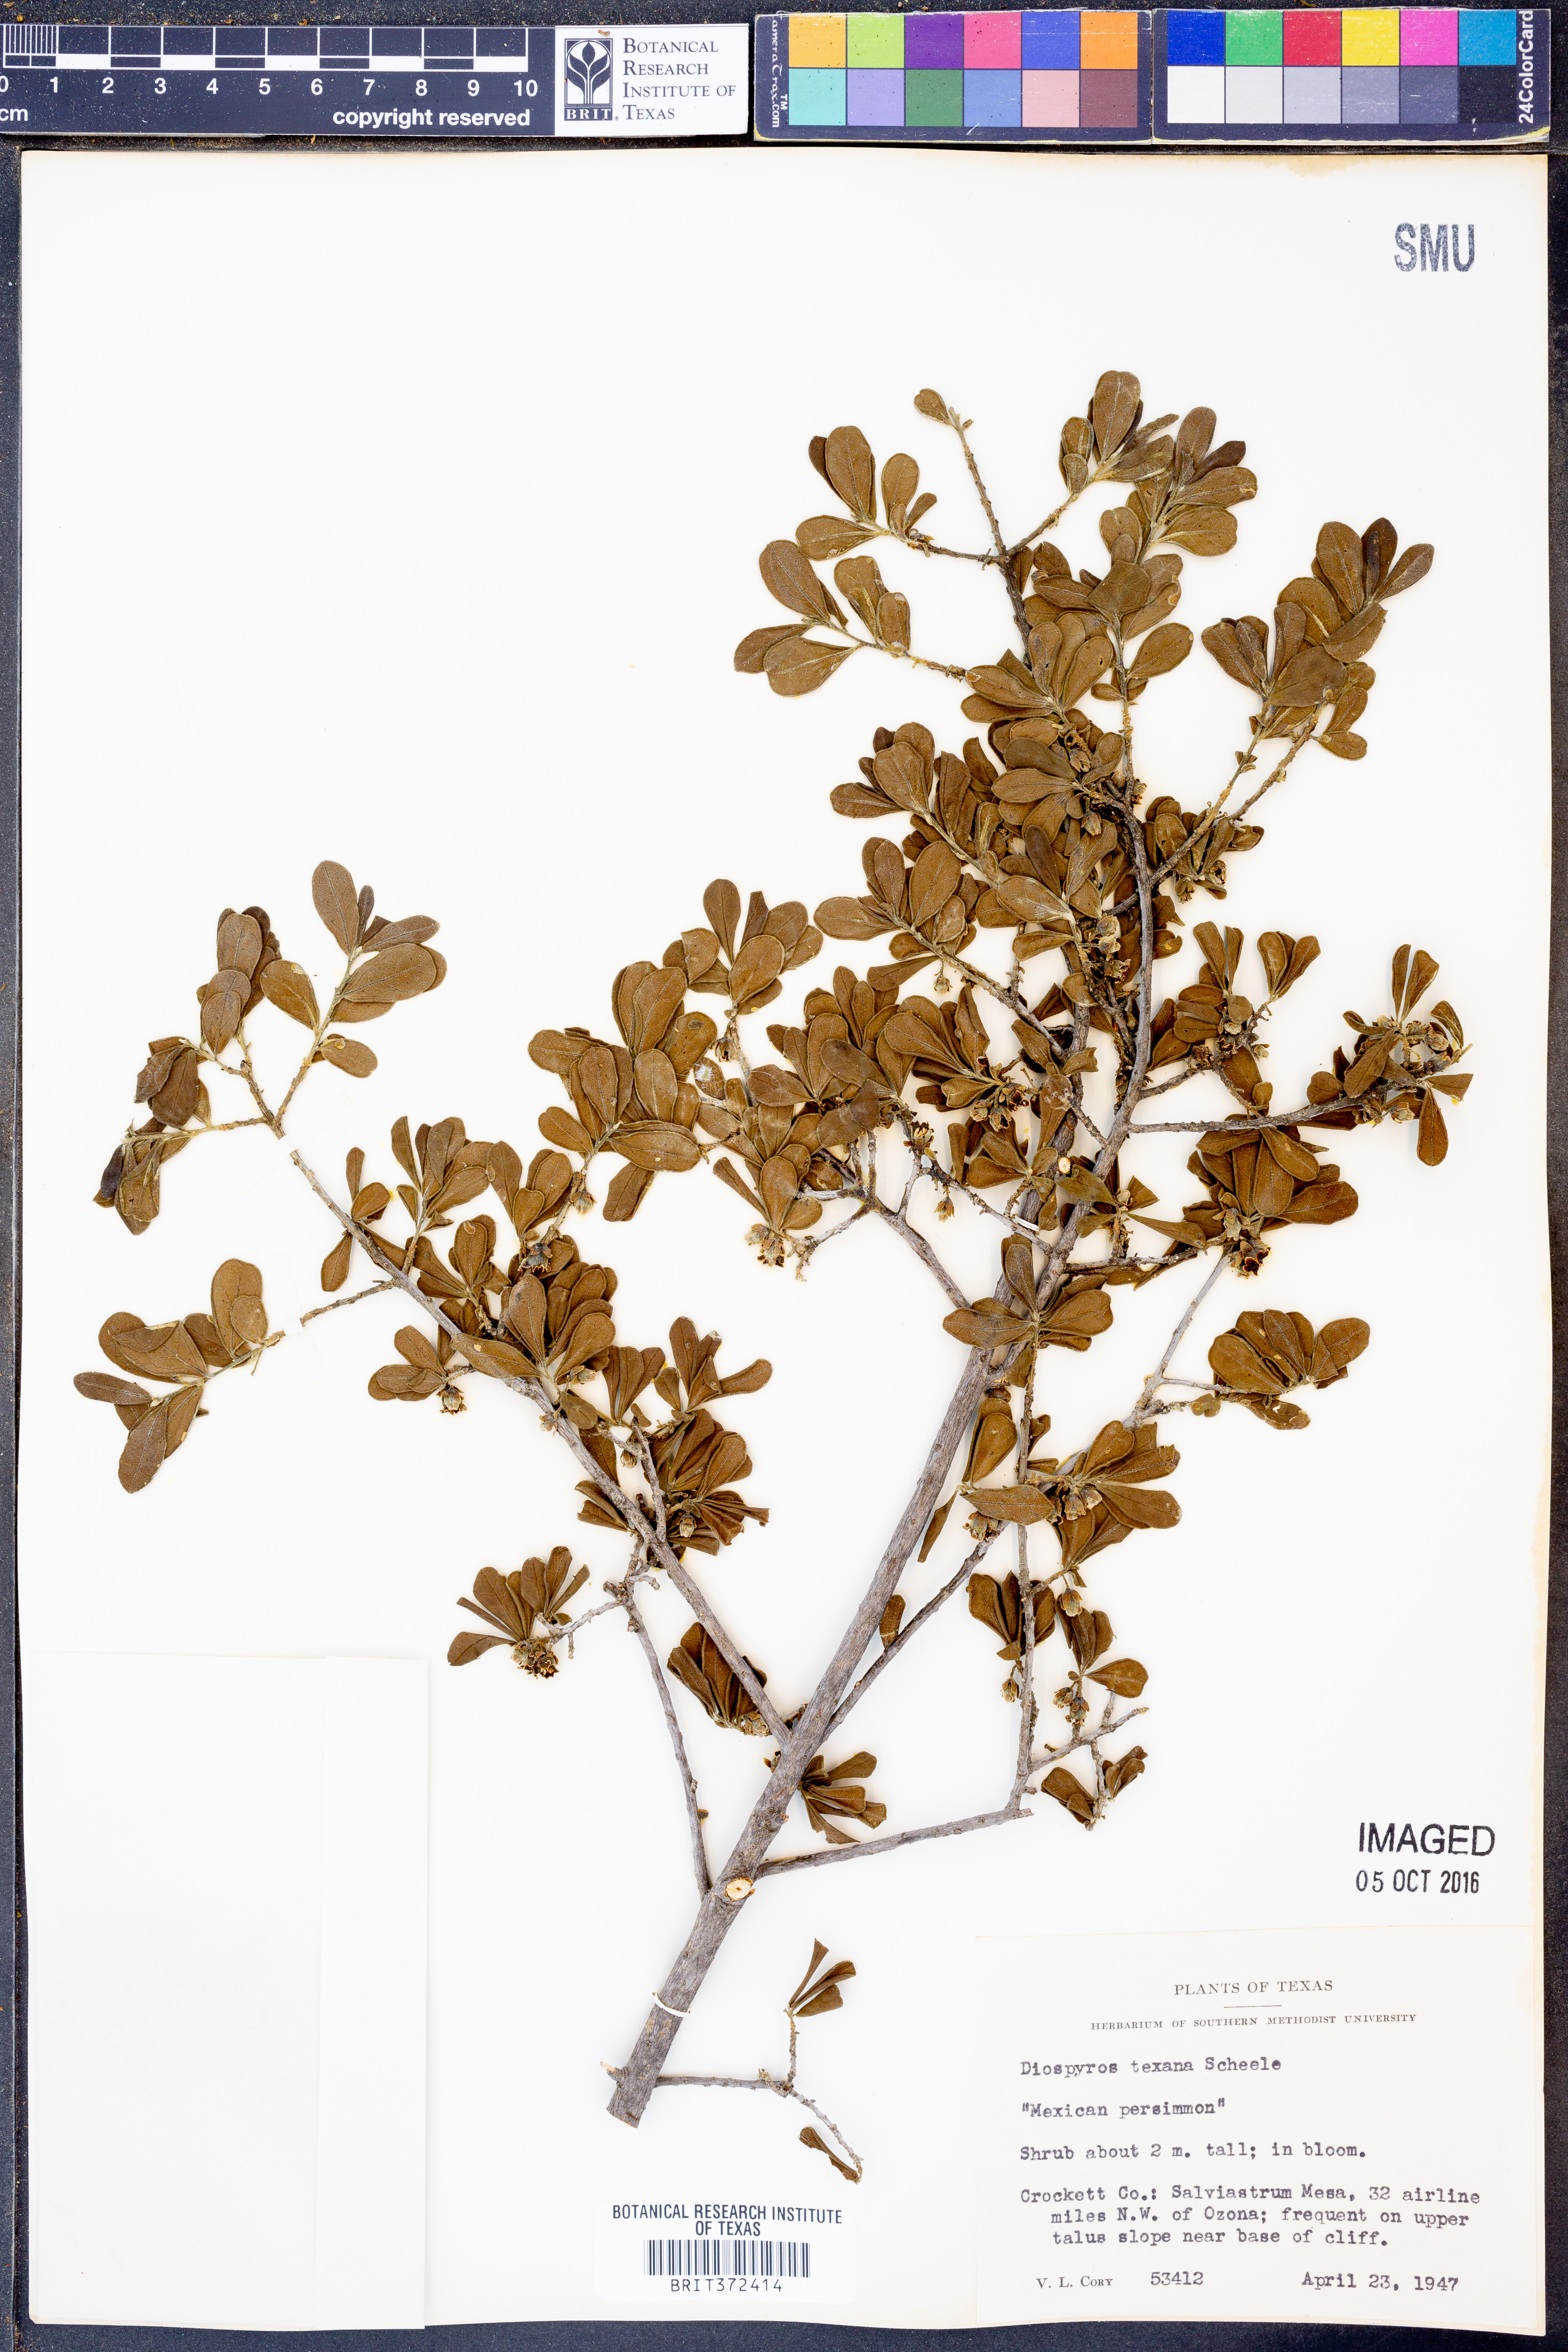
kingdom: Plantae
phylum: Tracheophyta
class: Magnoliopsida
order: Ericales
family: Ebenaceae
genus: Diospyros
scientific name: Diospyros texana
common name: Texas persimmon
